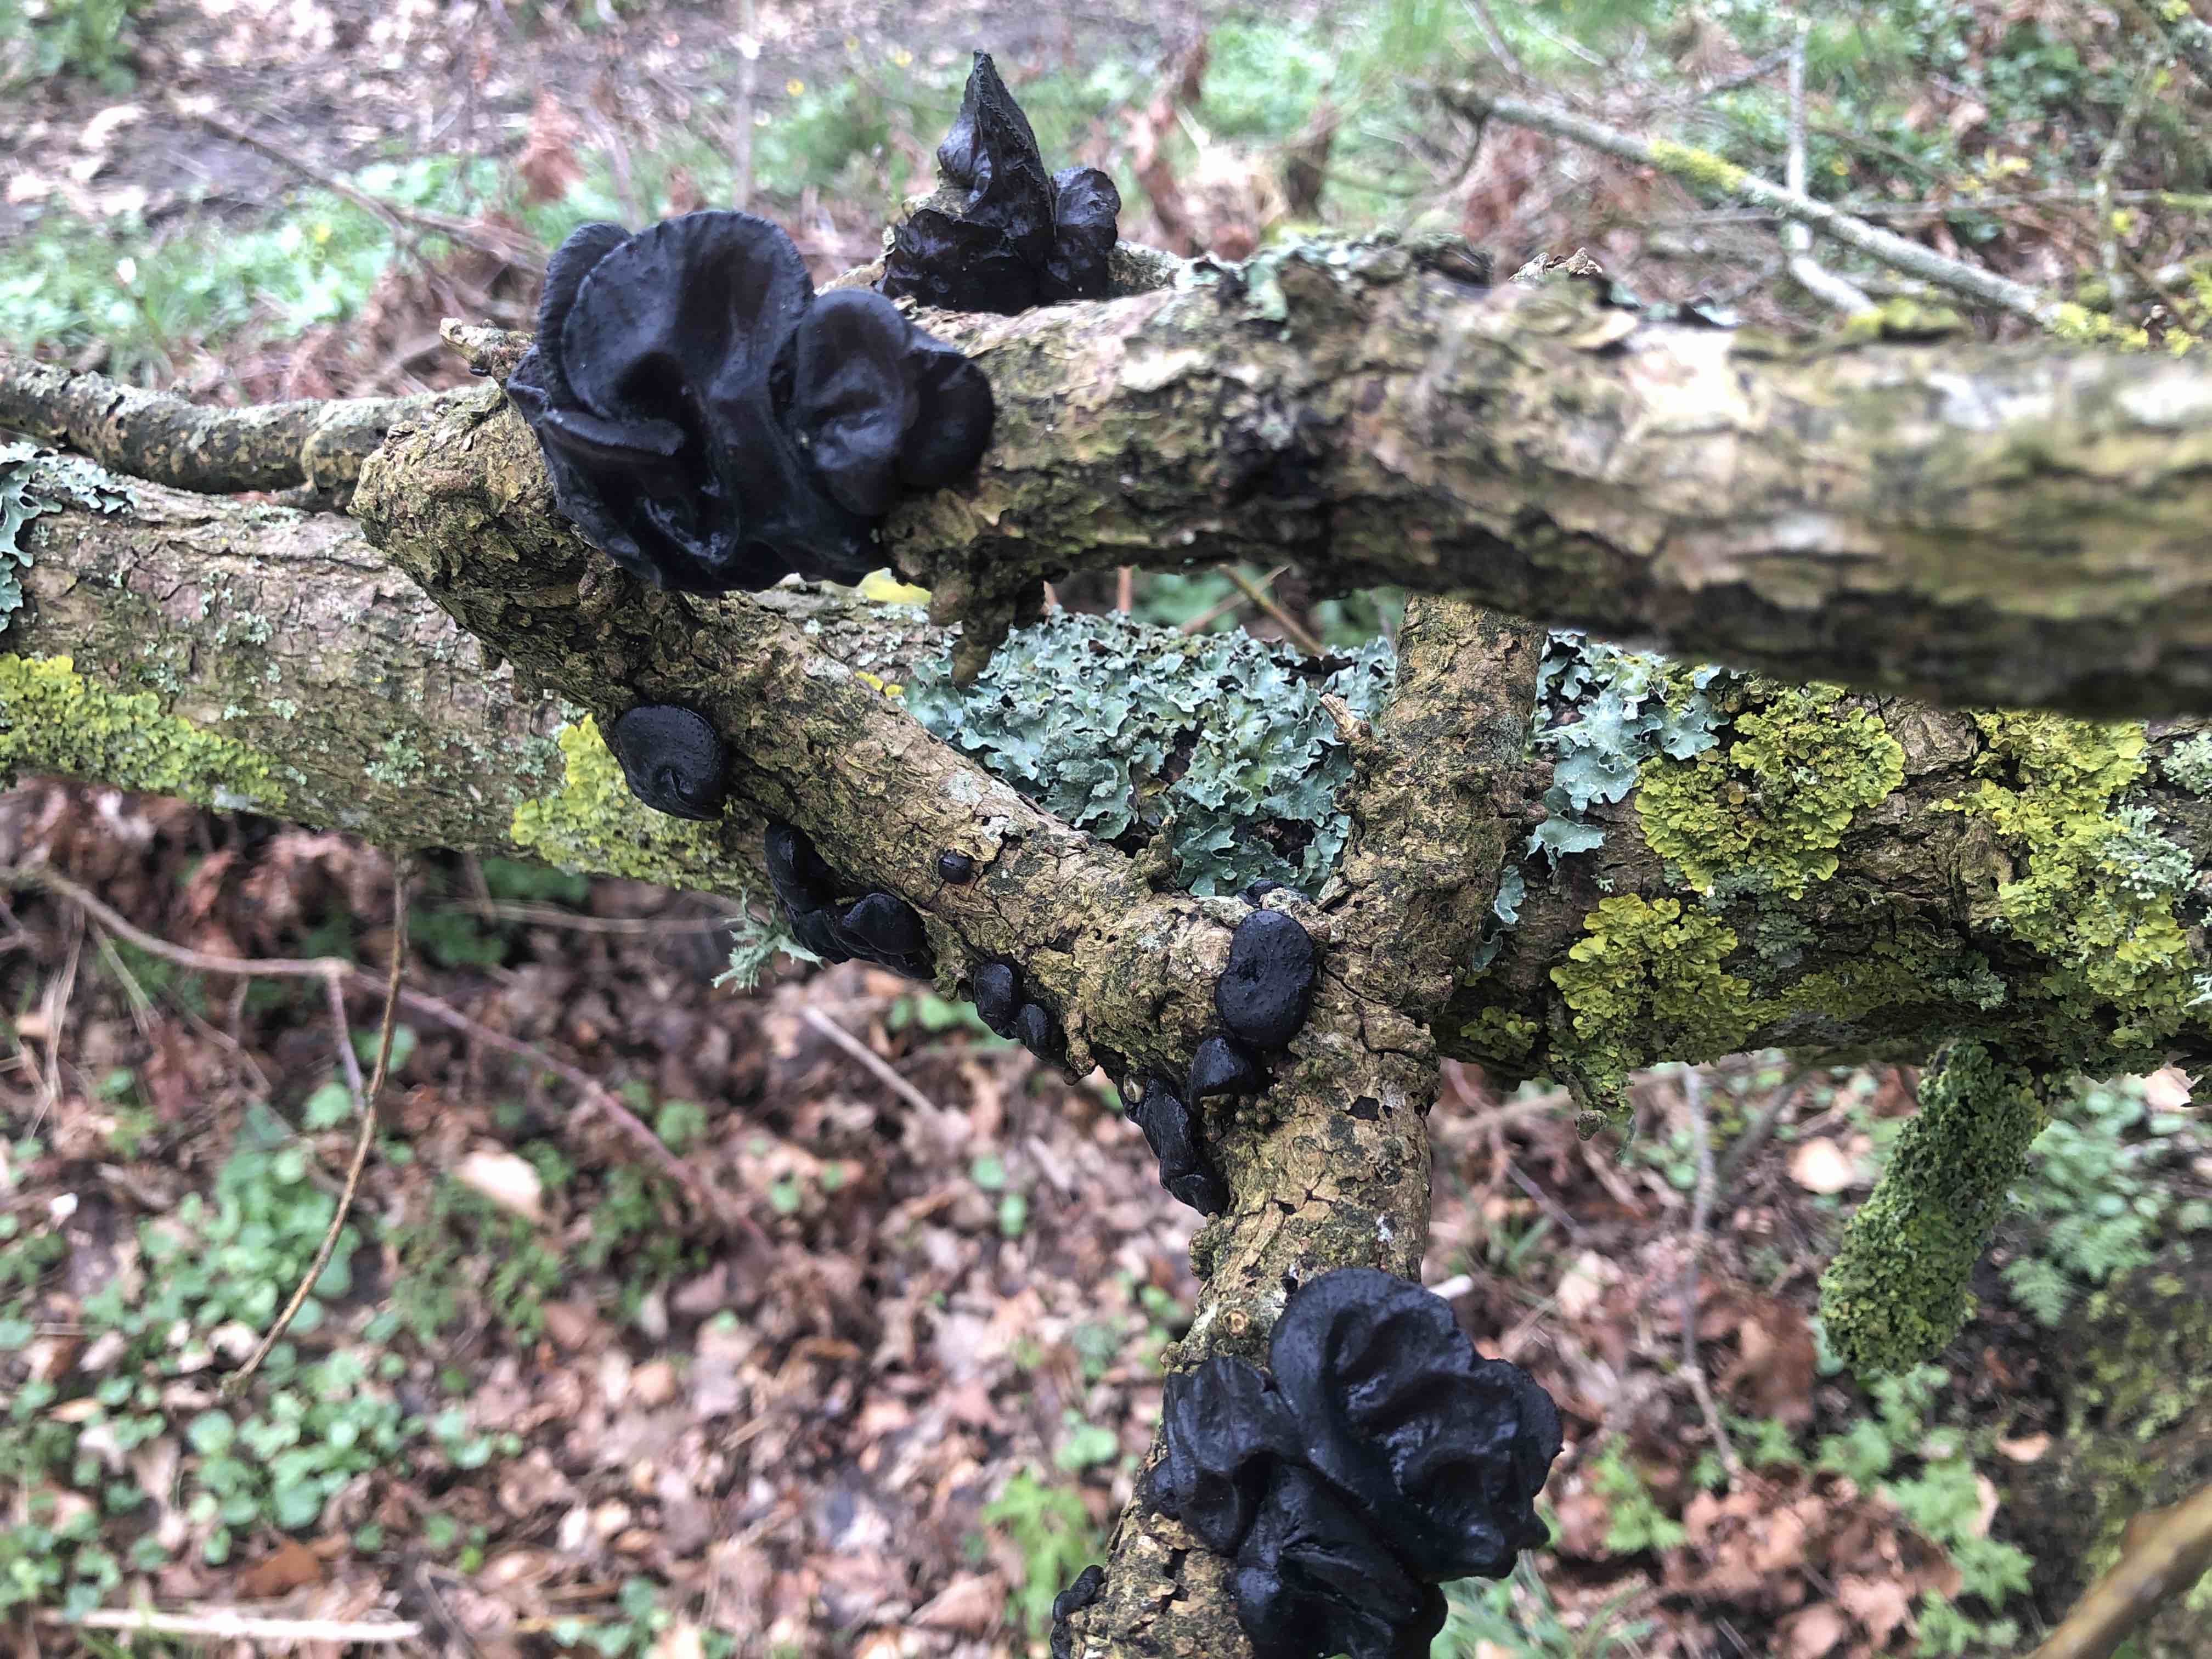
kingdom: Fungi
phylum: Basidiomycota
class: Agaricomycetes
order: Auriculariales
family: Auriculariaceae
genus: Exidia
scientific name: Exidia glandulosa
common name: ege-bævretop
